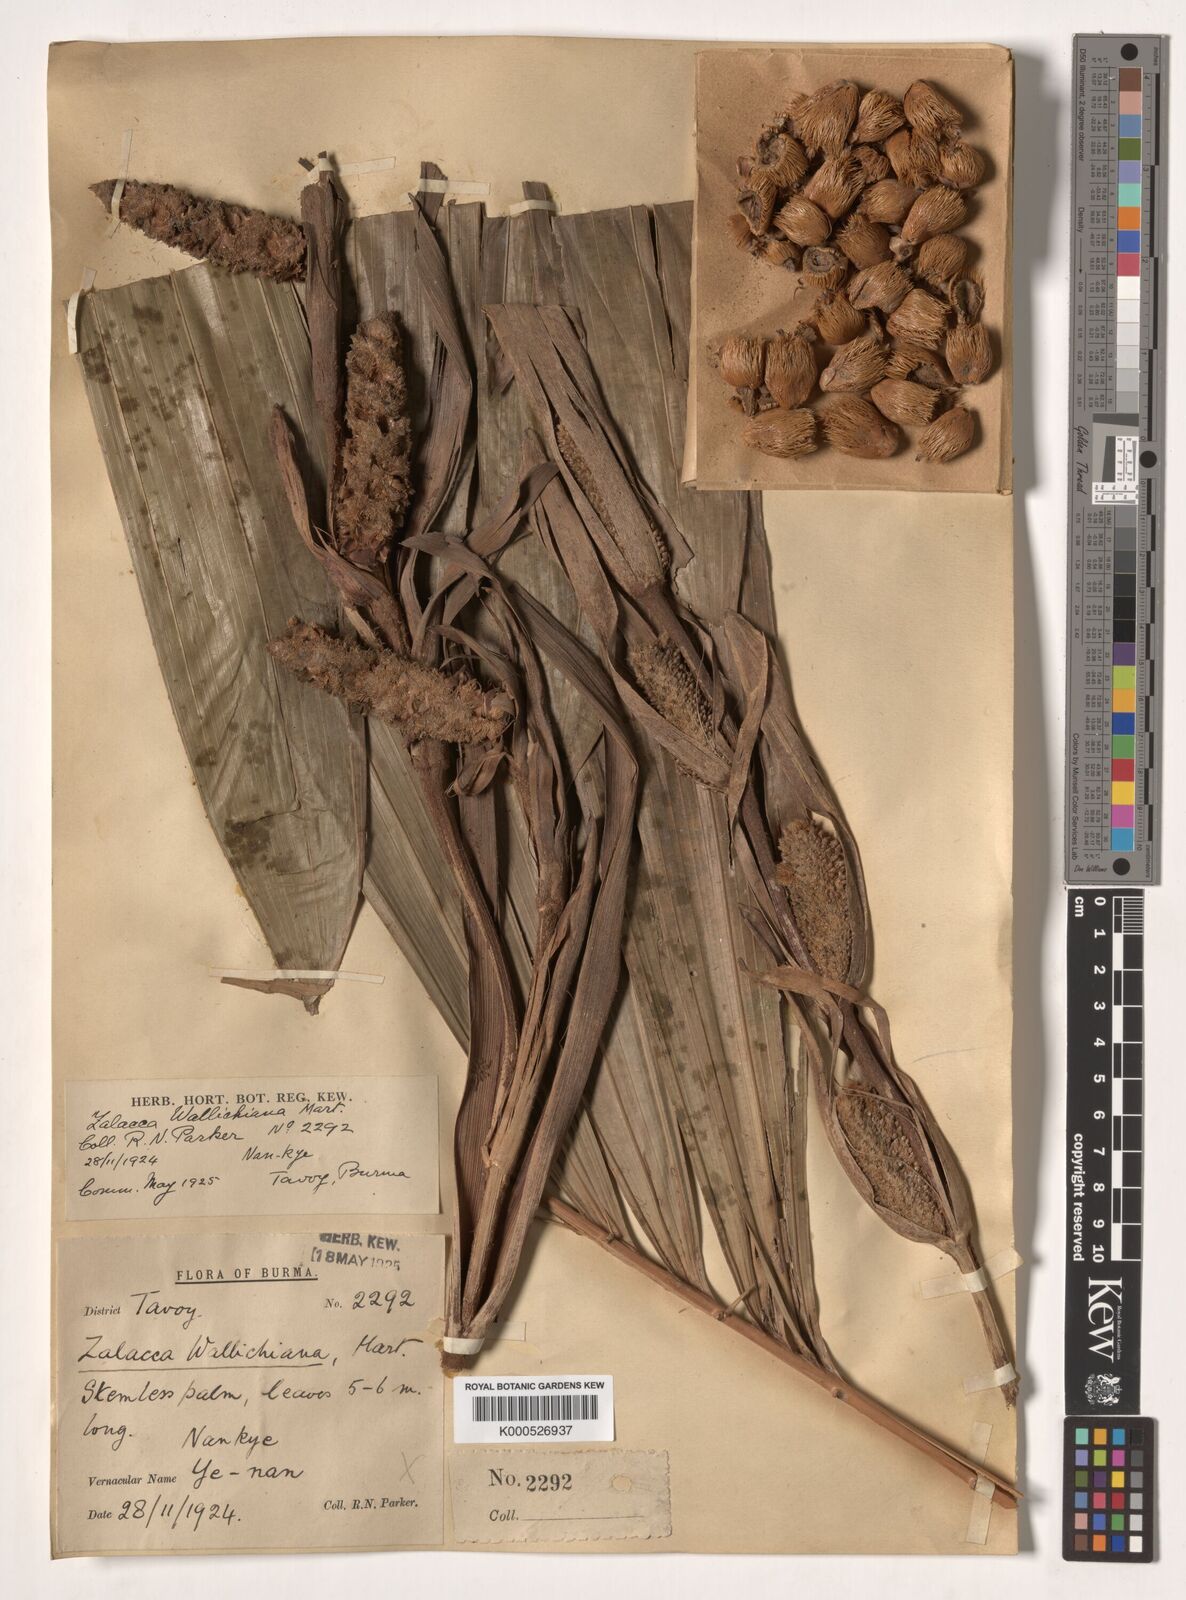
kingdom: Plantae
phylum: Tracheophyta
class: Liliopsida
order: Arecales
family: Arecaceae
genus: Salacca
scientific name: Salacca wallichiana
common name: Rakum palm
